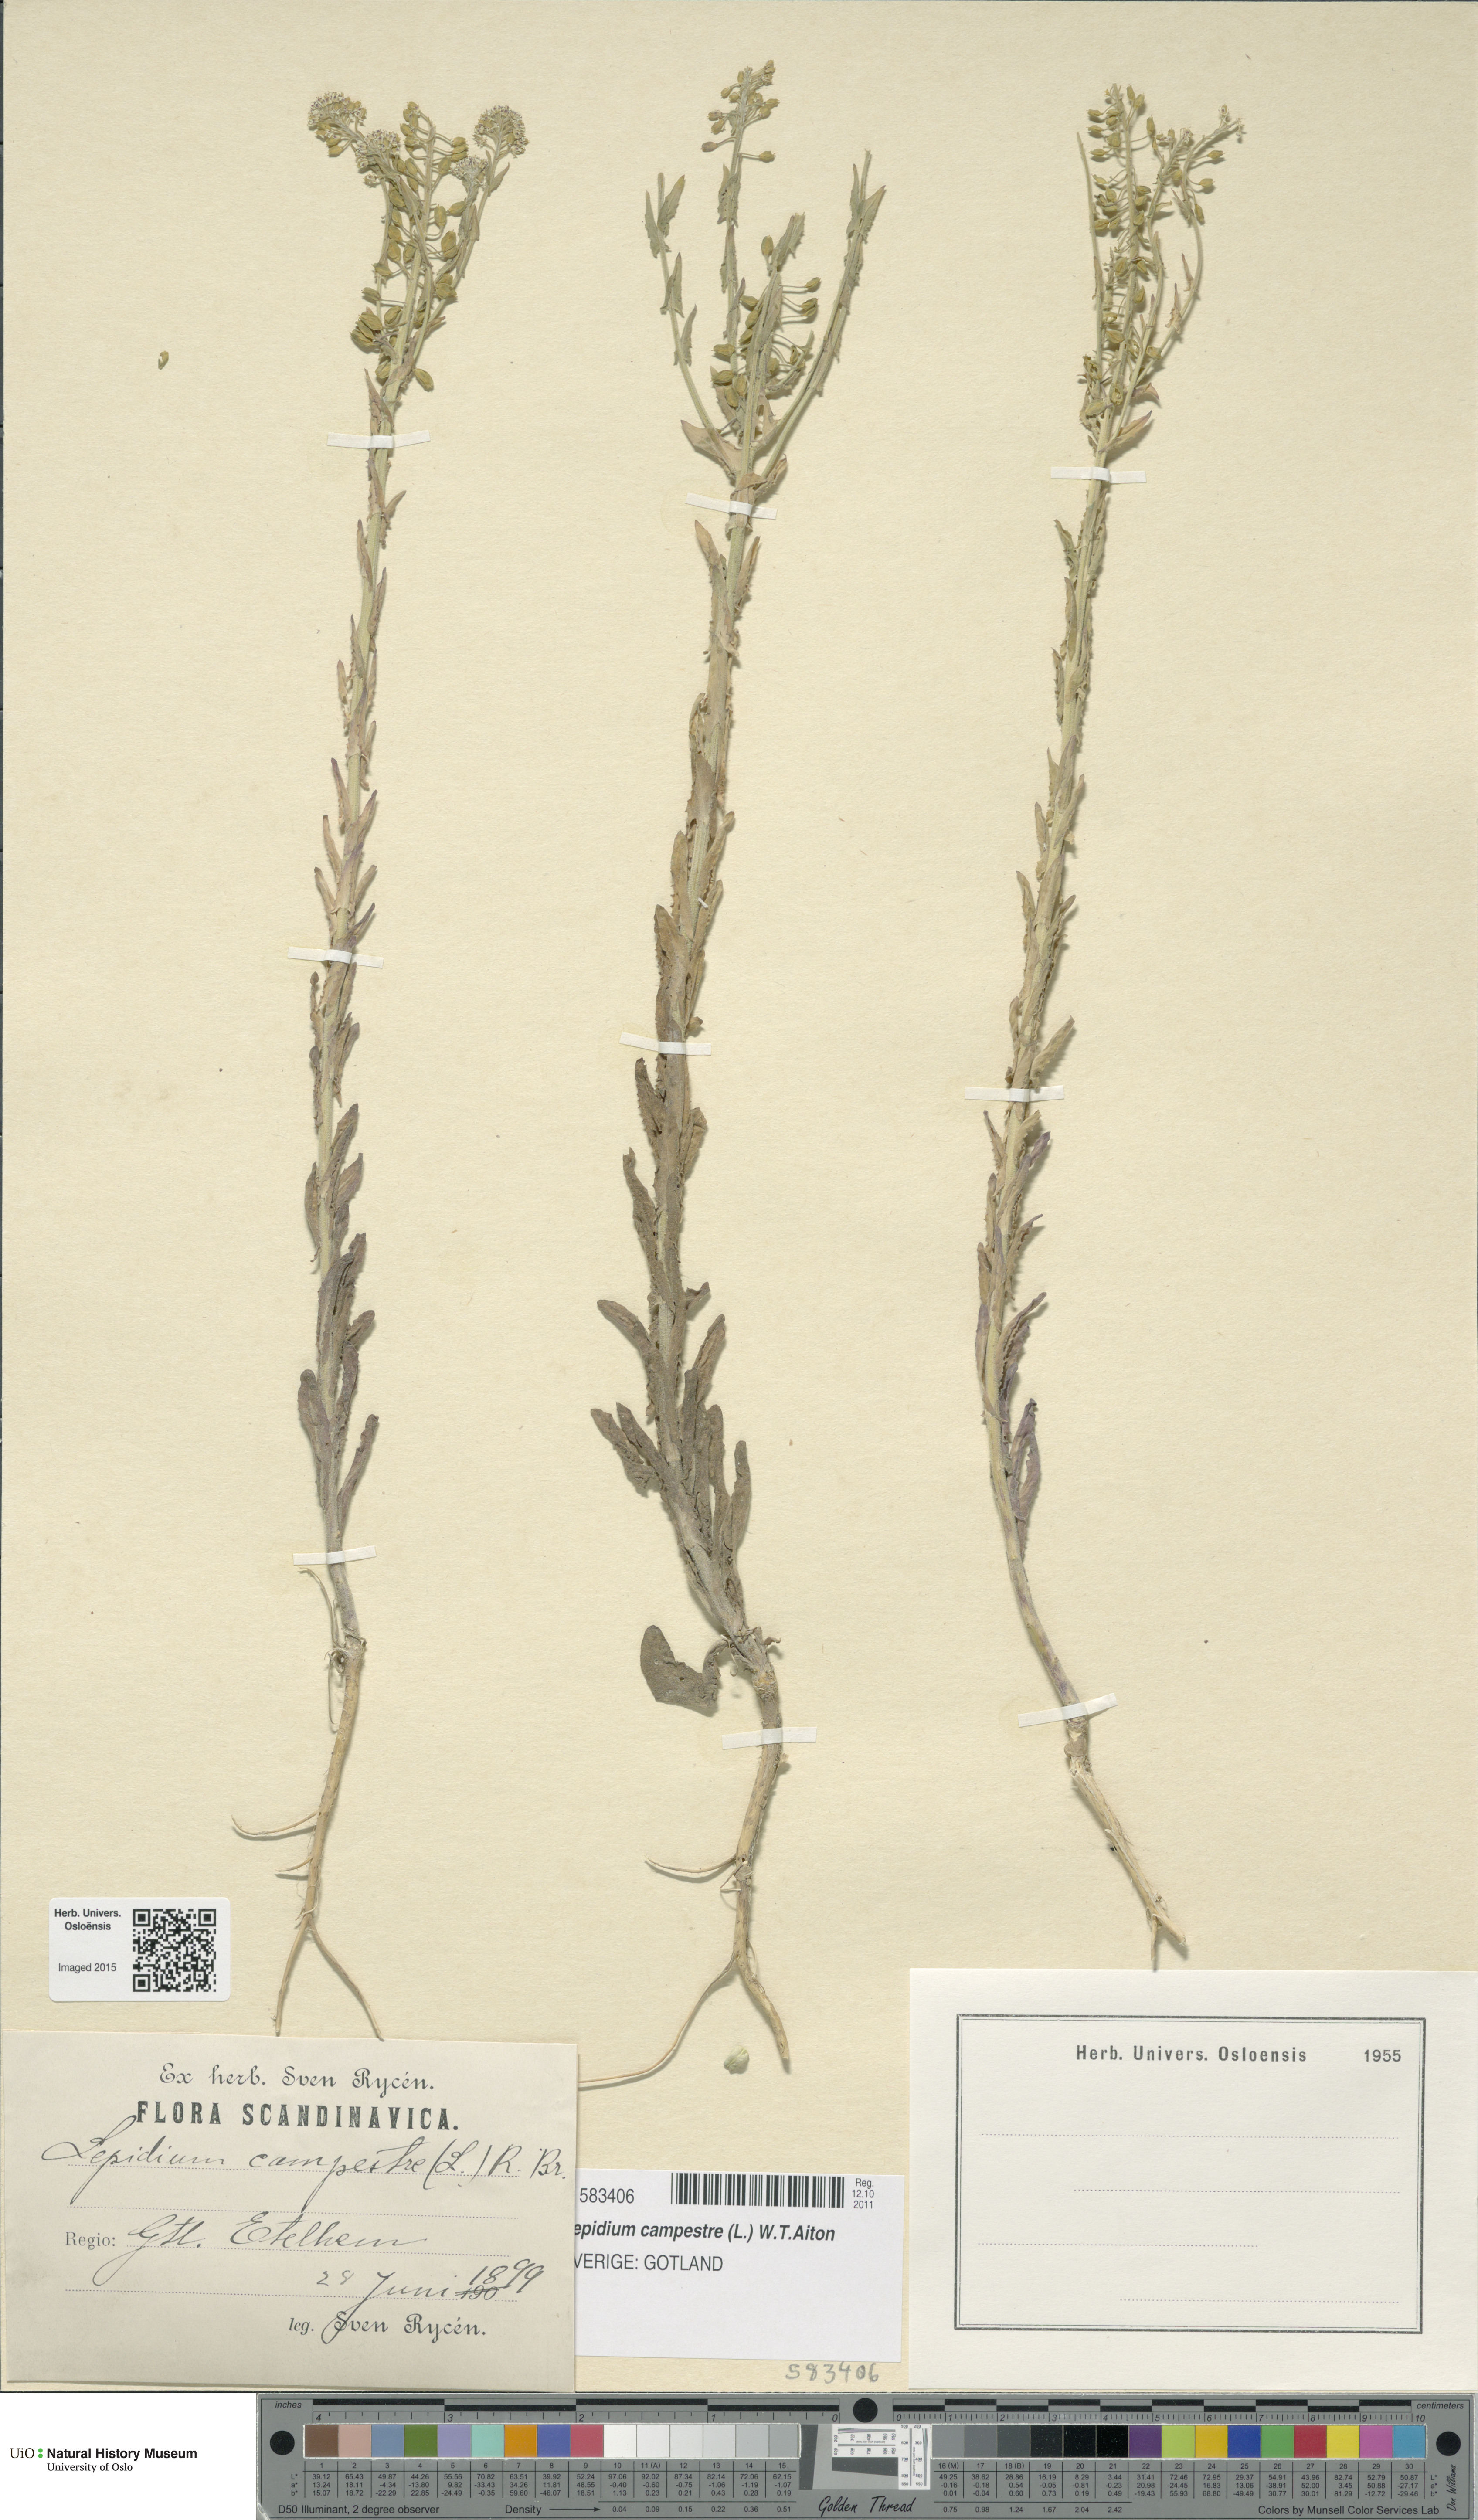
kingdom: Plantae
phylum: Tracheophyta
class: Magnoliopsida
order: Brassicales
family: Brassicaceae
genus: Lepidium
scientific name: Lepidium campestre
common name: Field pepperwort
